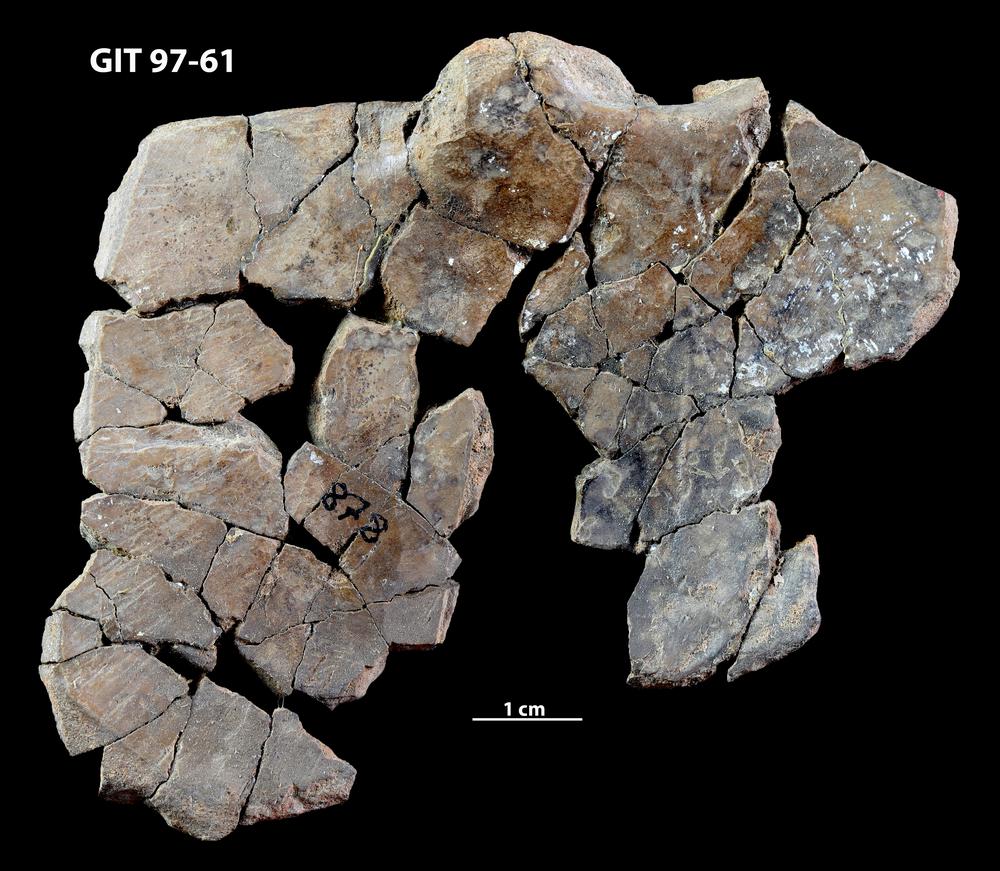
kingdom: Animalia
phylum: Chordata
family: Holonematidae
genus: Holonema
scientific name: Holonema
